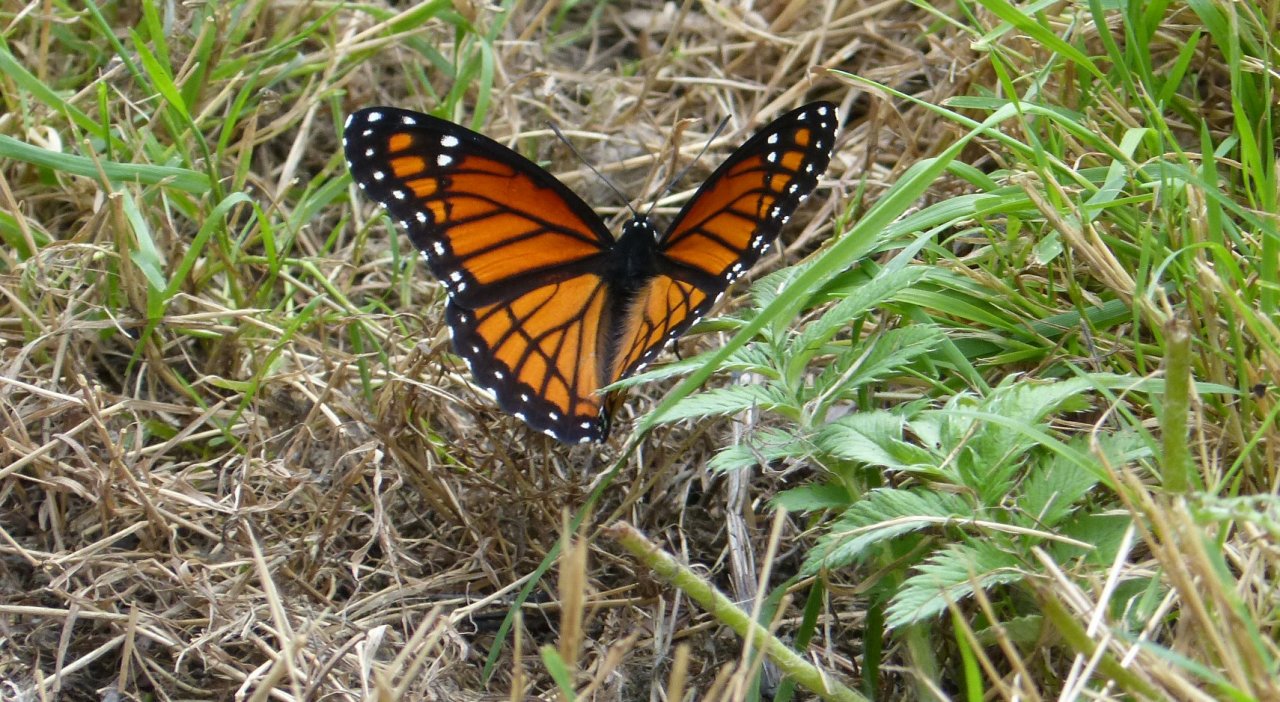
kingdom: Animalia
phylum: Arthropoda
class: Insecta
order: Lepidoptera
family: Nymphalidae
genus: Limenitis
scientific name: Limenitis archippus
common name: Viceroy
